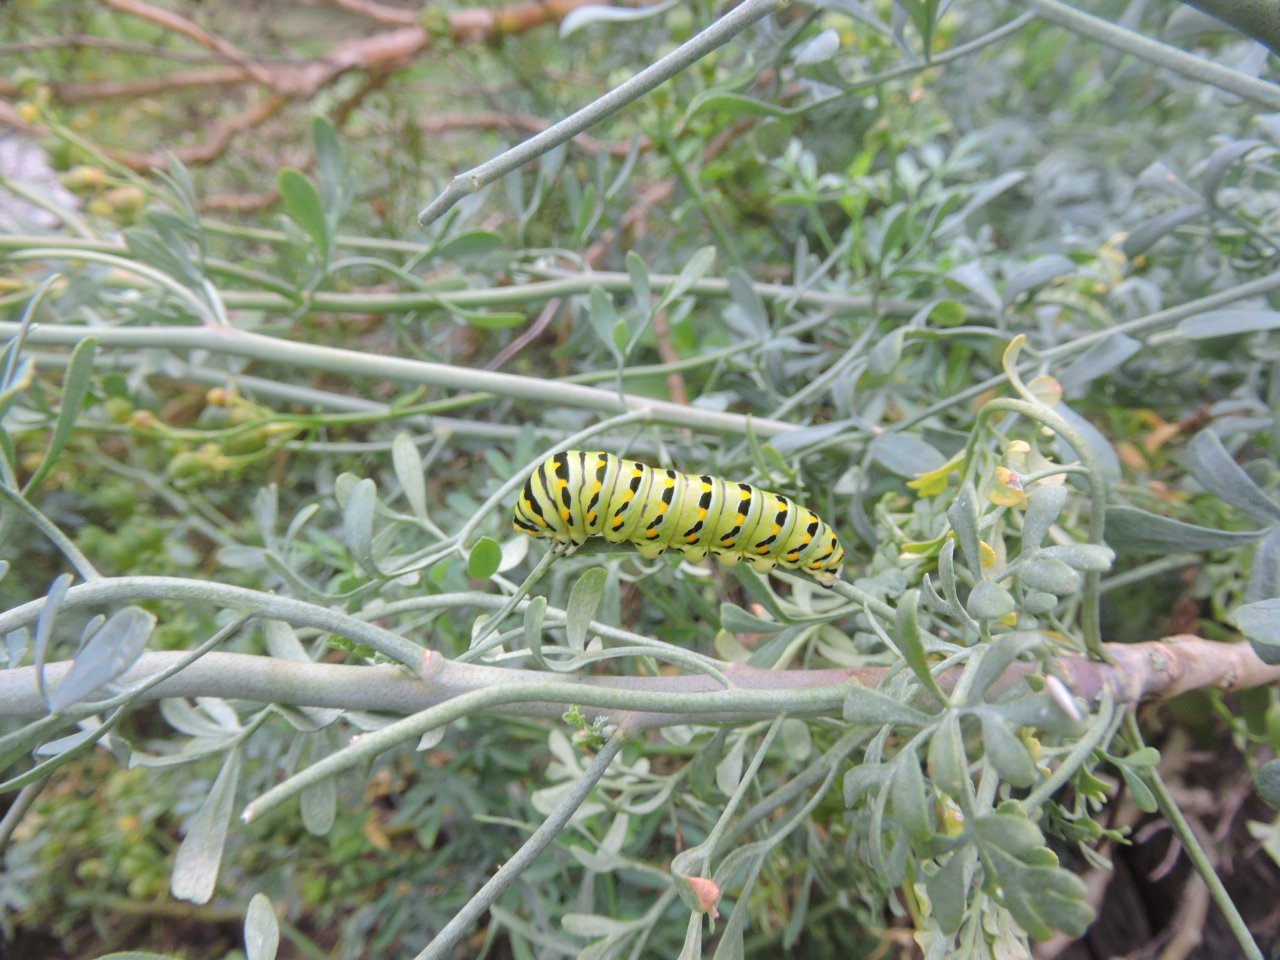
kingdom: Animalia
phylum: Arthropoda
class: Insecta
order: Lepidoptera
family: Papilionidae
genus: Papilio
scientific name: Papilio polyxenes
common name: Black Swallowtail
